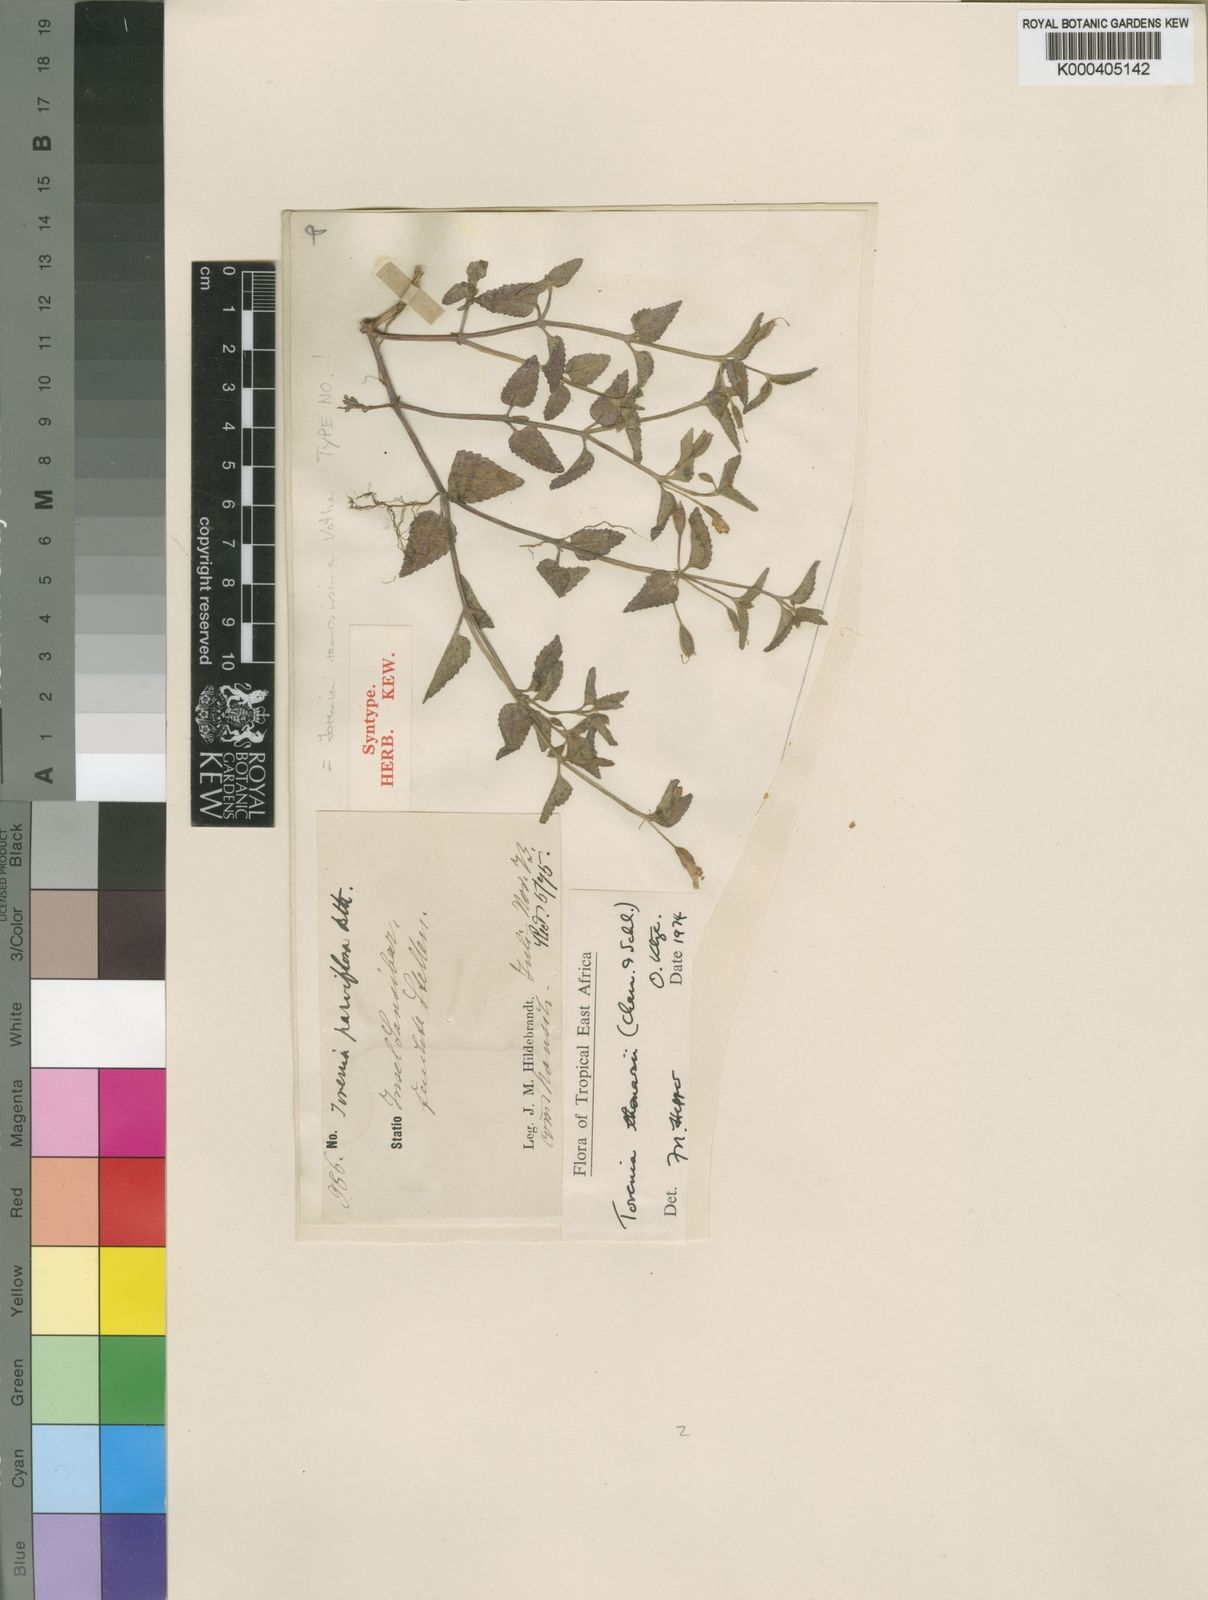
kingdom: Plantae
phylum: Tracheophyta
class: Magnoliopsida
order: Lamiales
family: Linderniaceae
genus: Torenia
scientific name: Torenia thouarsii
